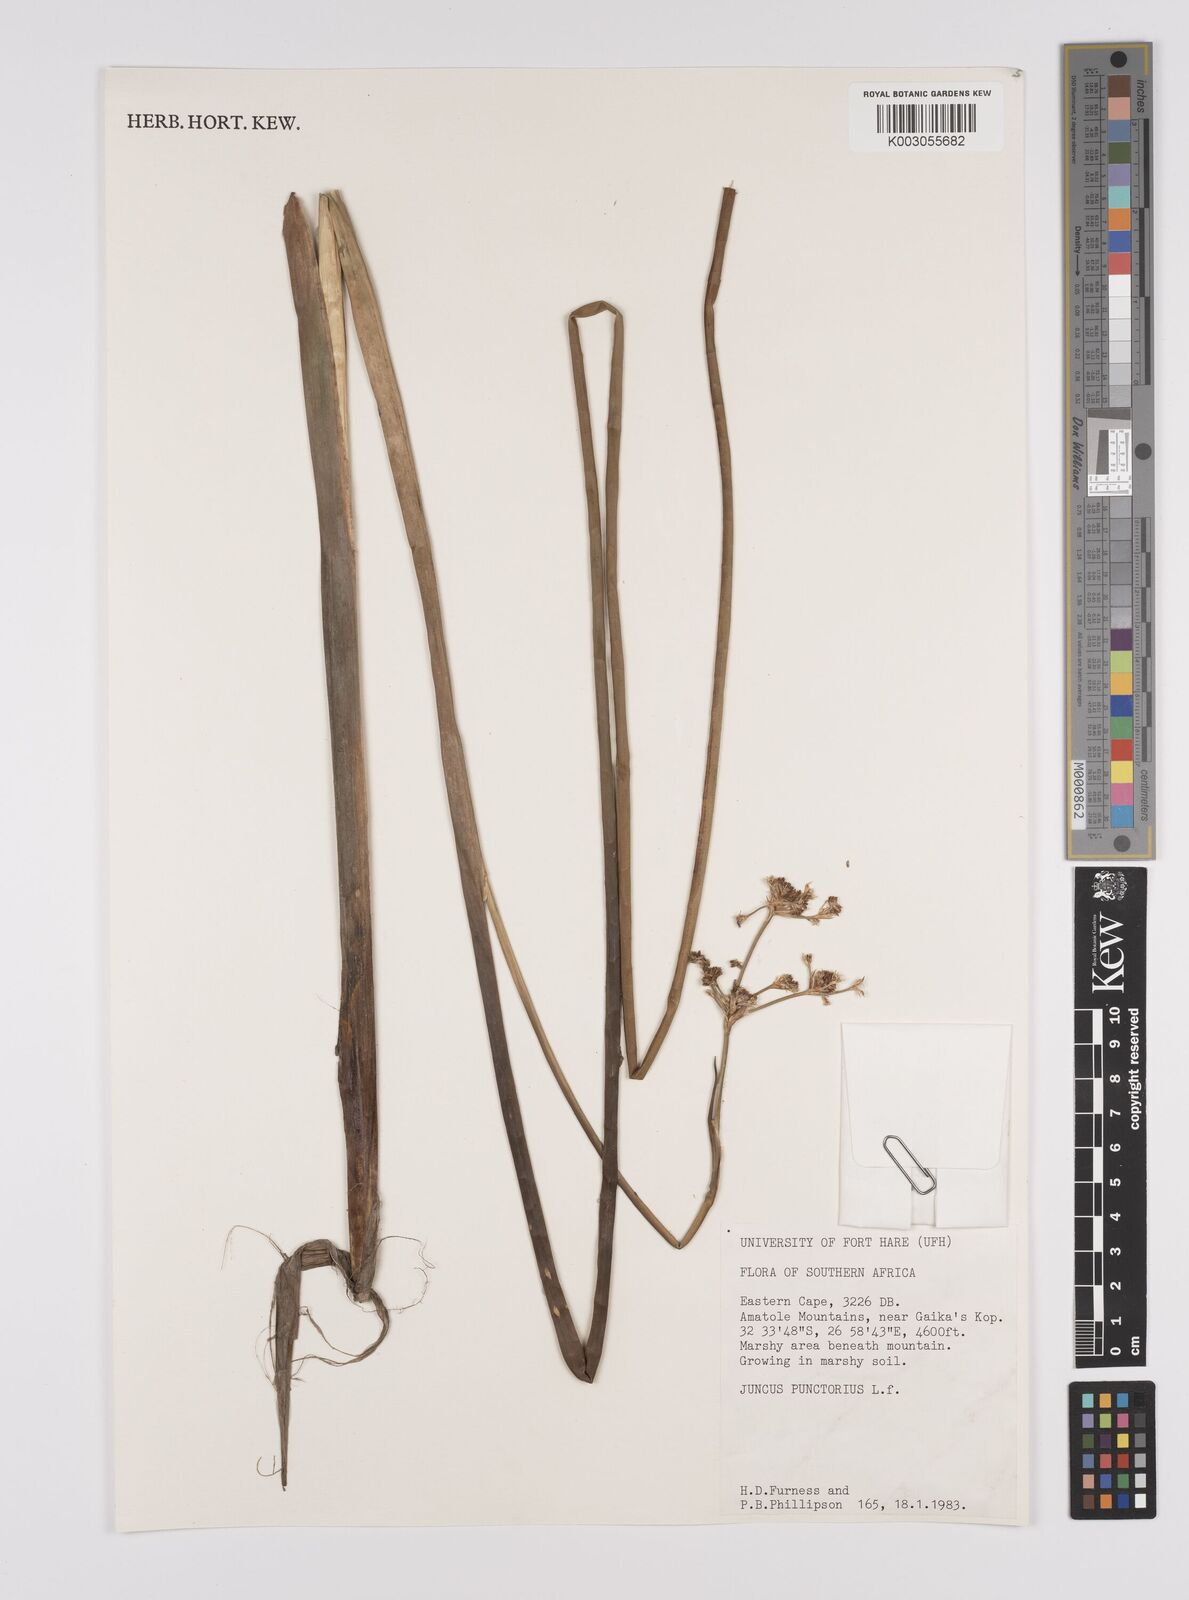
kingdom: Plantae
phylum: Tracheophyta
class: Liliopsida
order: Poales
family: Juncaceae
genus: Juncus
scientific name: Juncus punctorius
